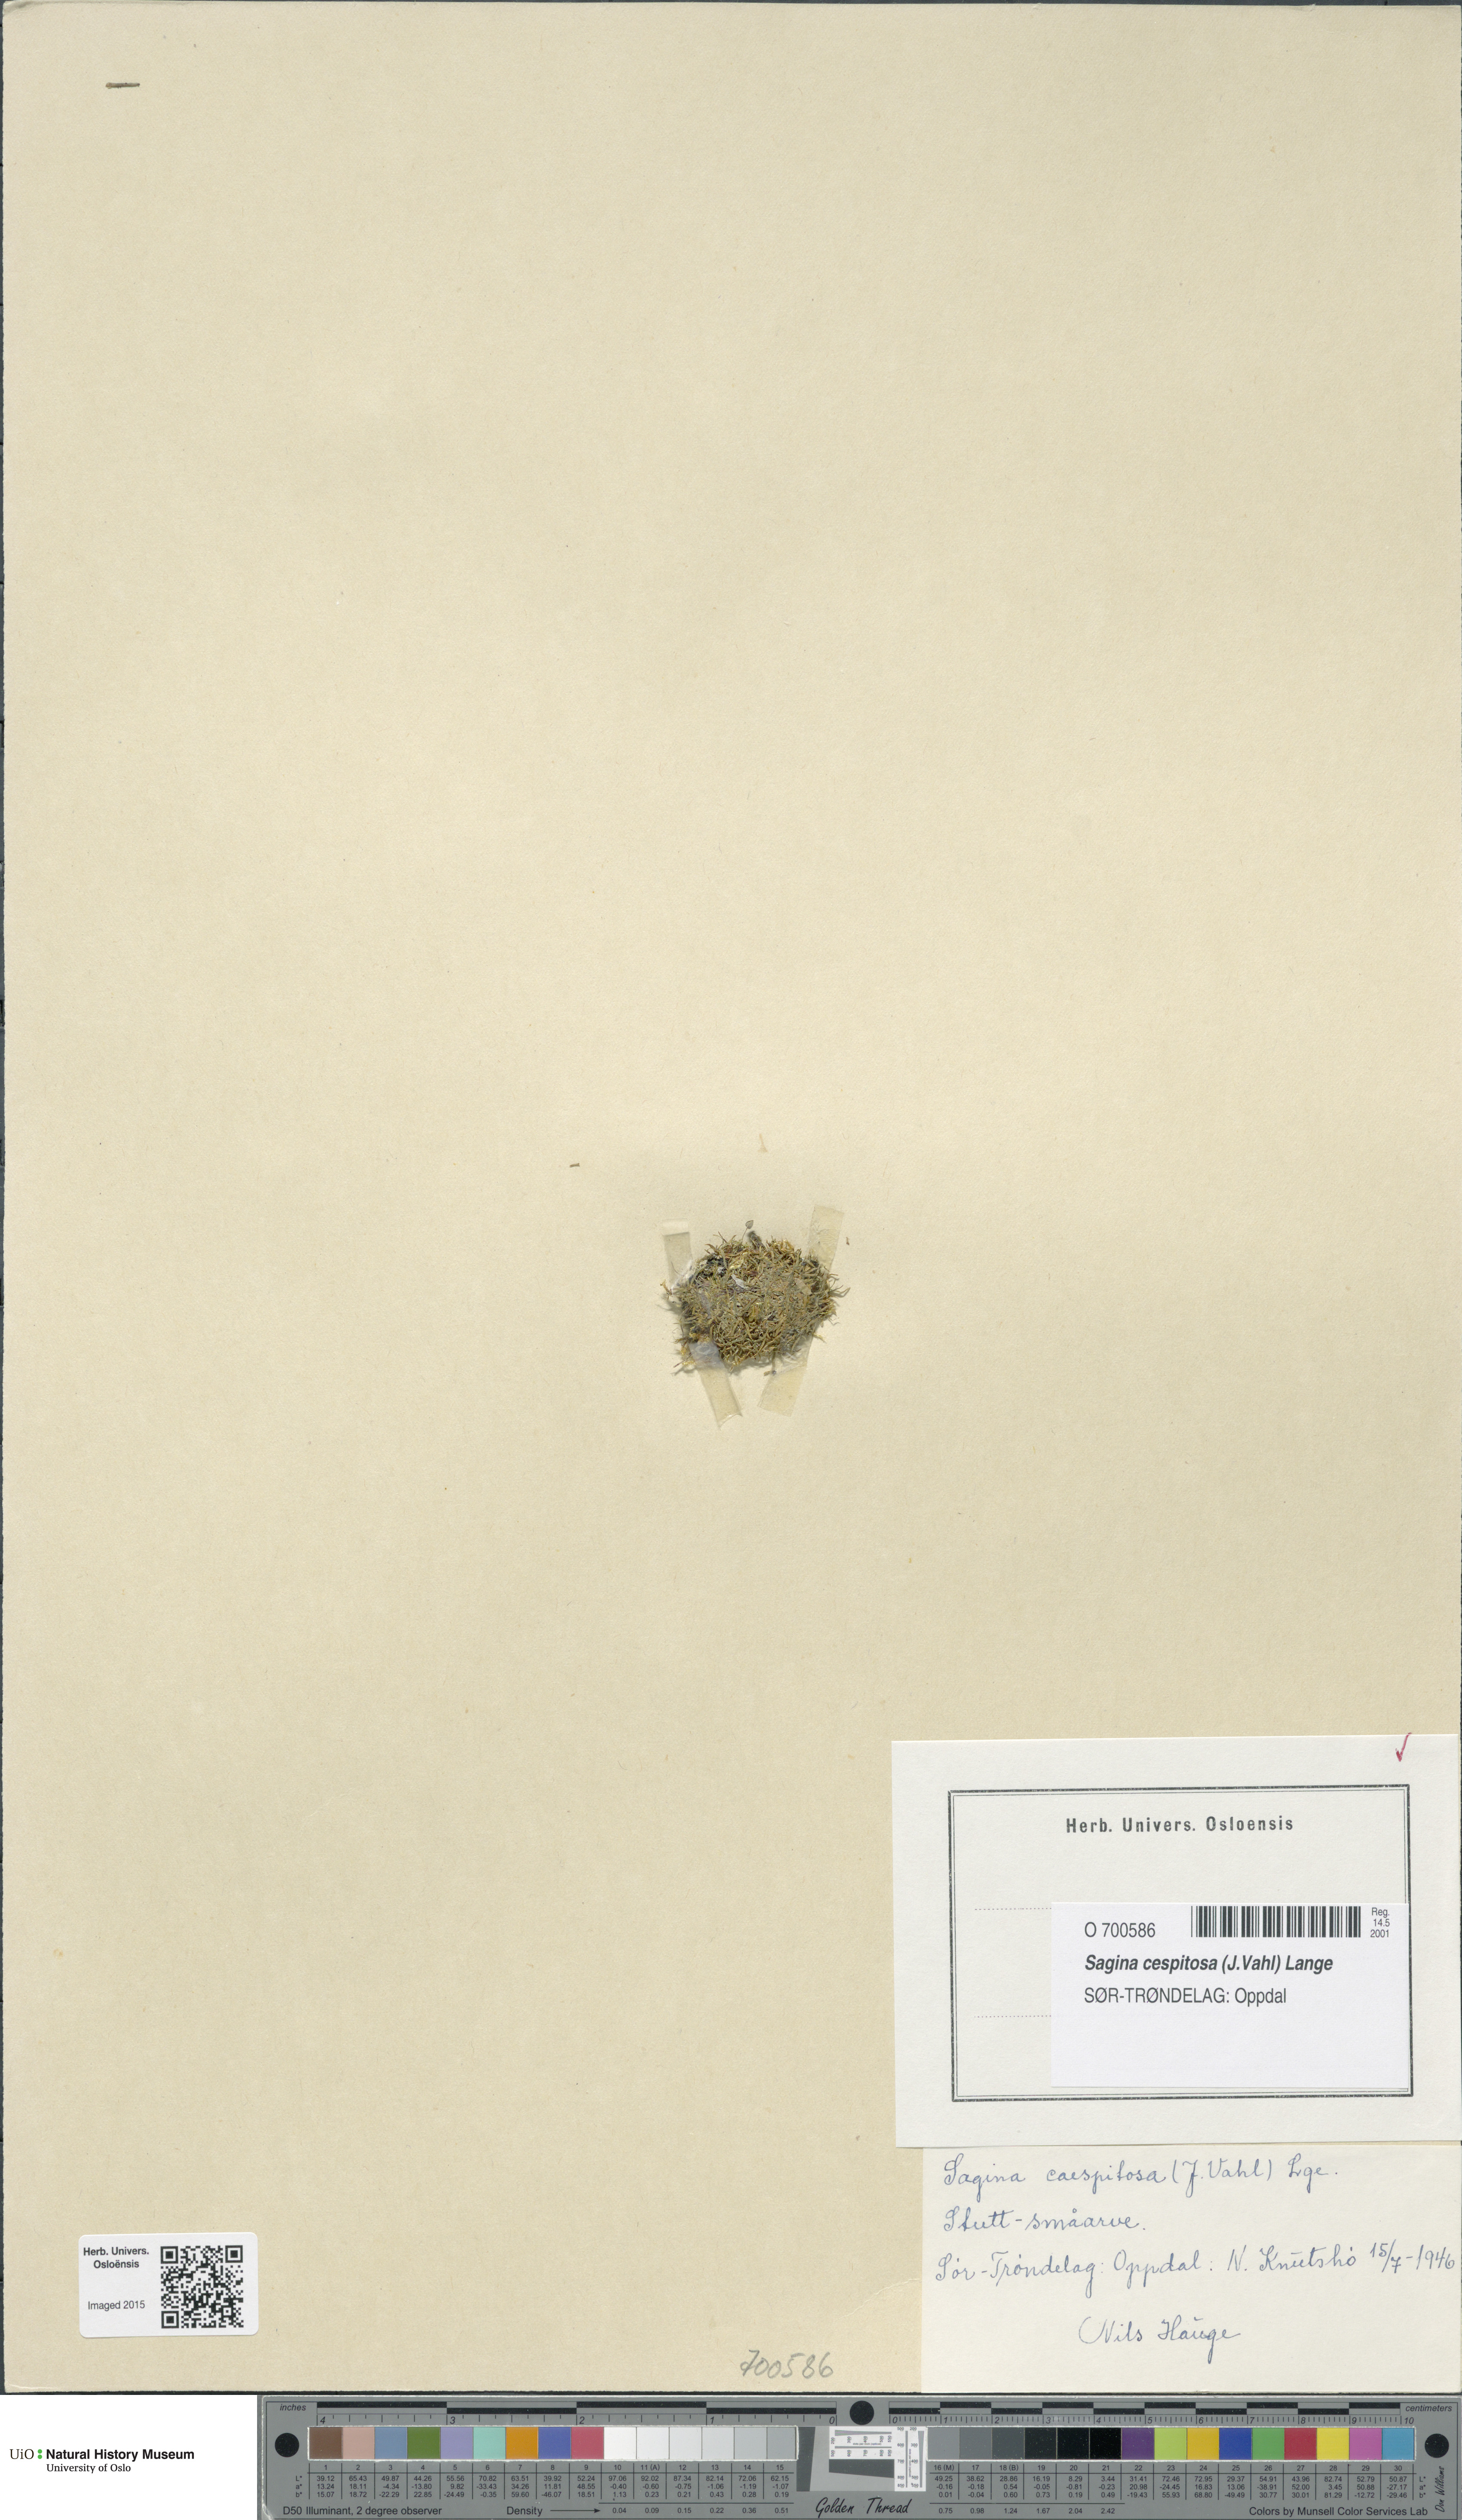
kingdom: Plantae
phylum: Tracheophyta
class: Magnoliopsida
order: Caryophyllales
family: Caryophyllaceae
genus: Sagina
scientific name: Sagina caespitosa
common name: Tufted pearlwort
